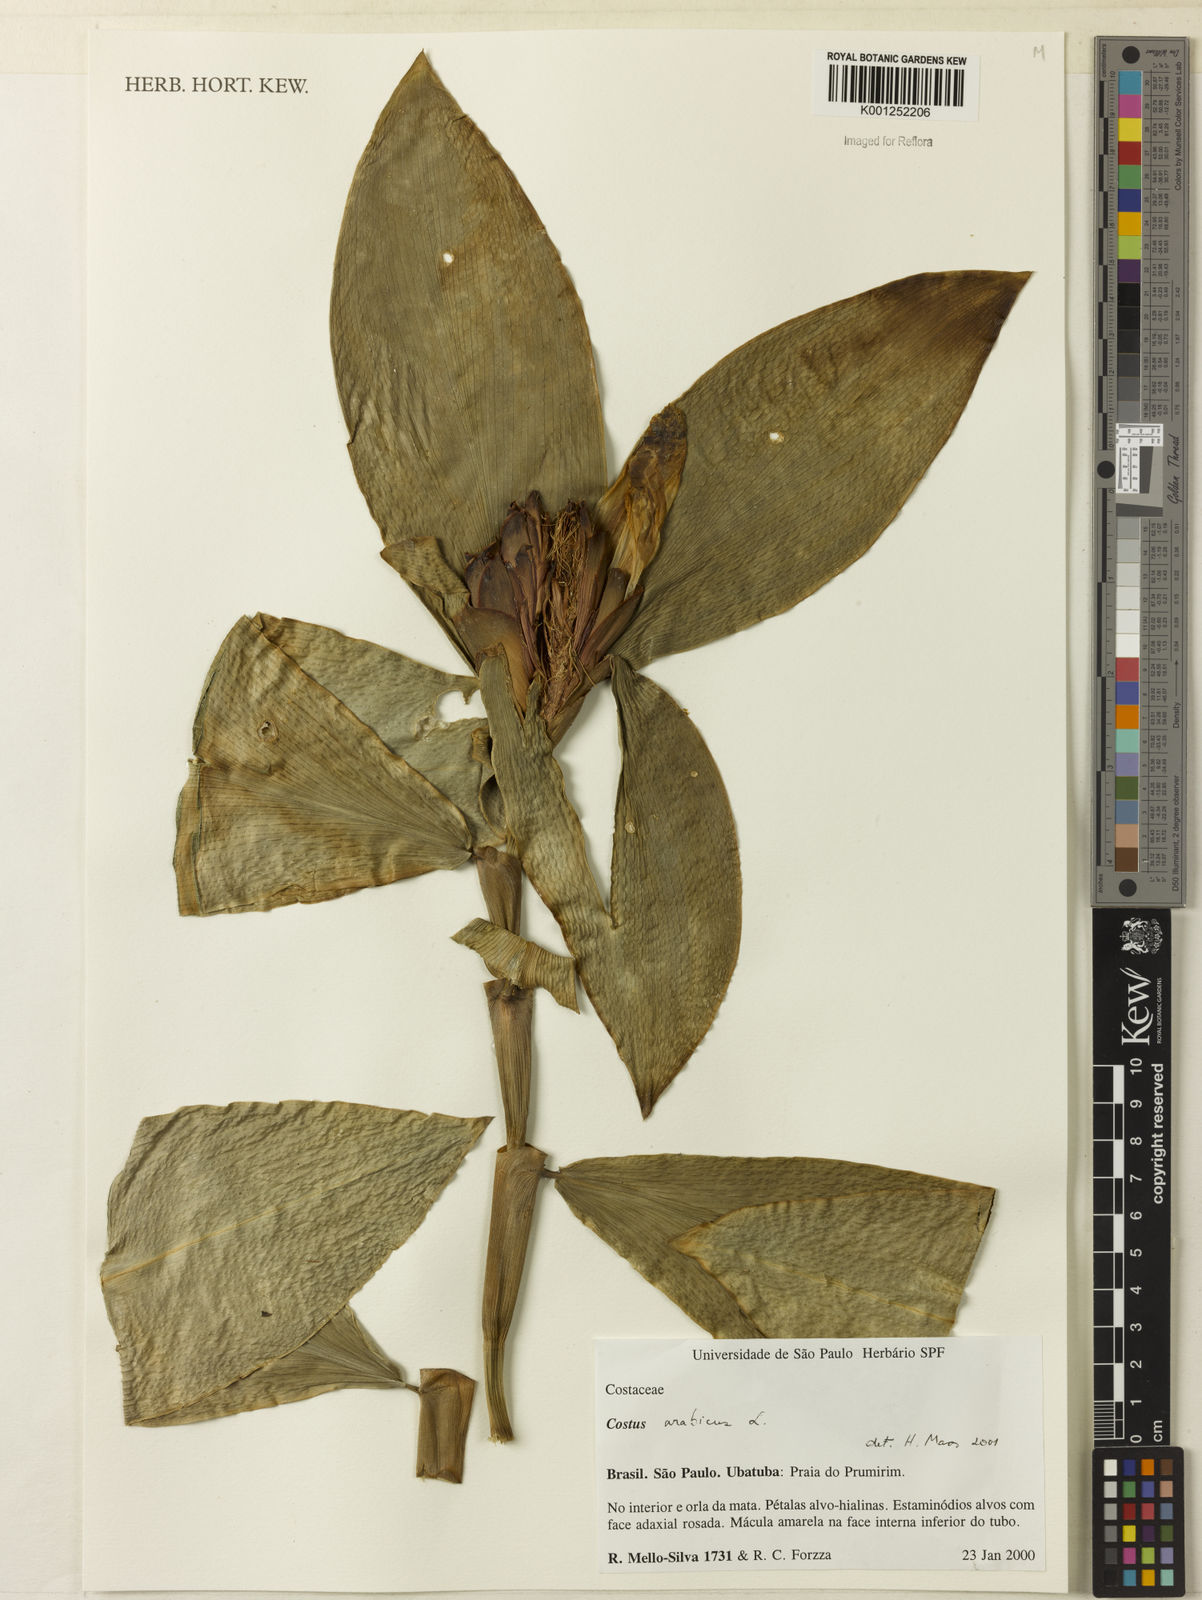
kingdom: Plantae
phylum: Tracheophyta
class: Liliopsida
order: Zingiberales
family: Costaceae
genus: Costus
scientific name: Costus arabicus
